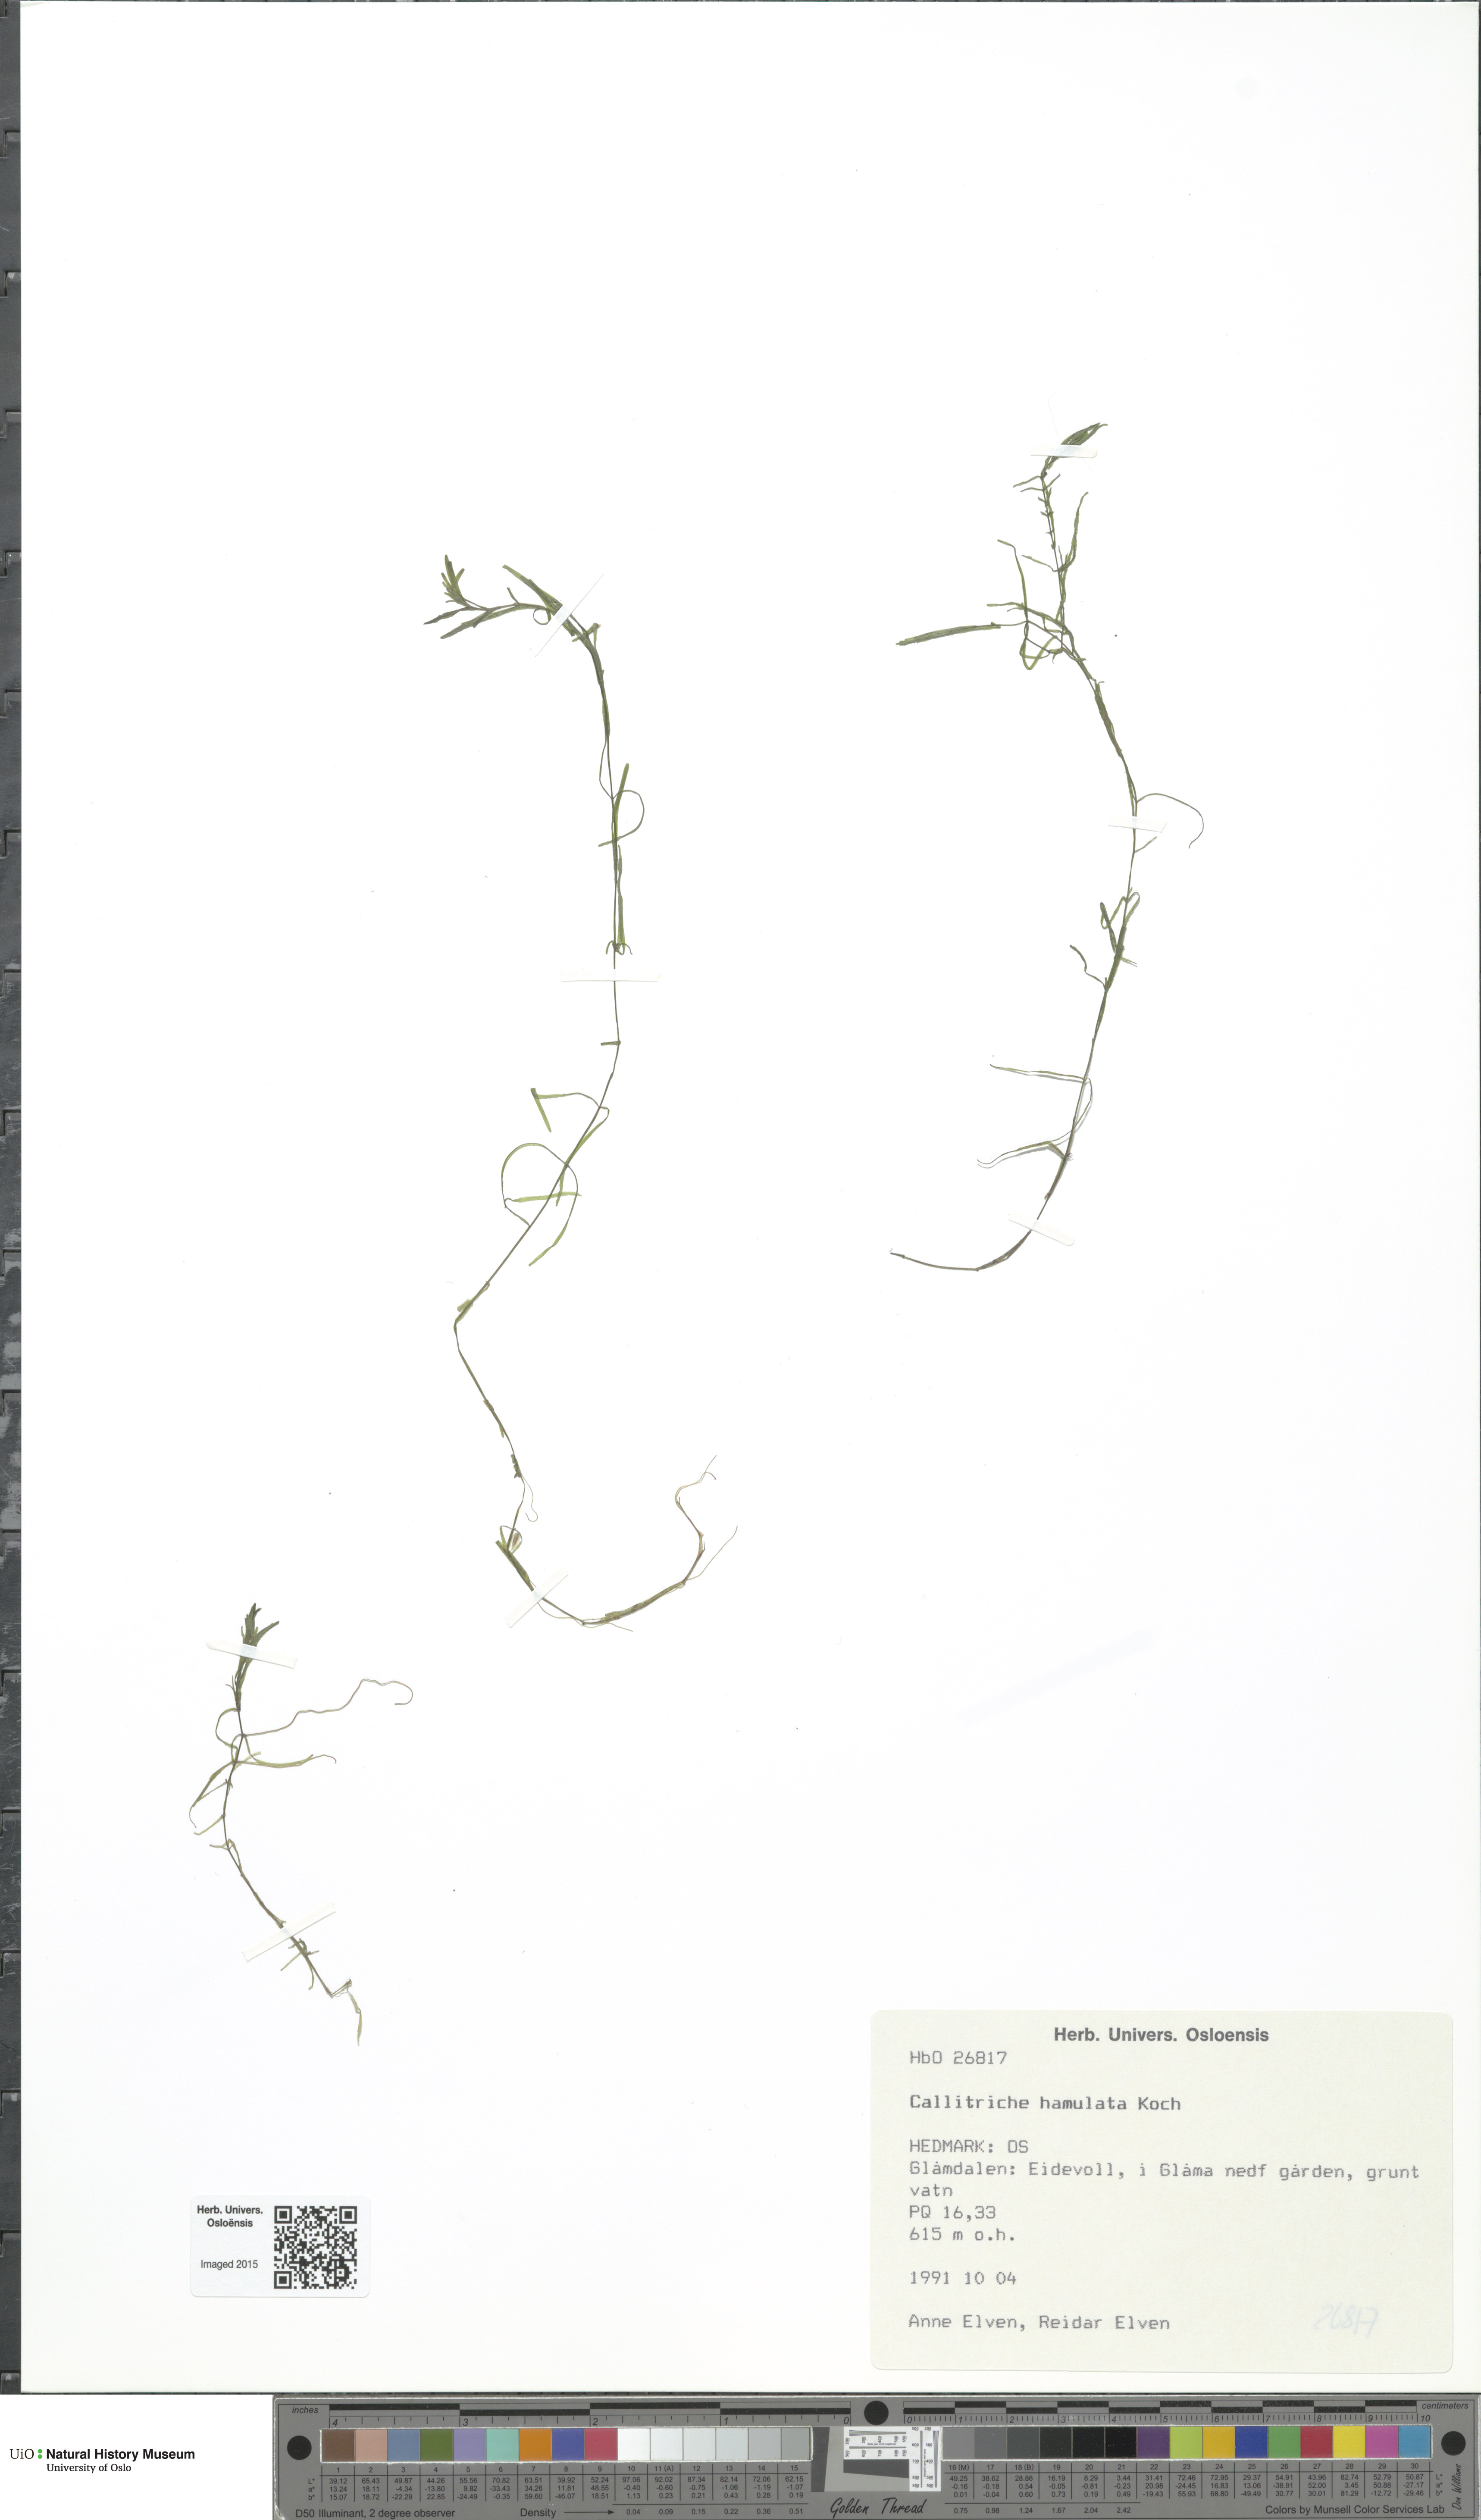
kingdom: Plantae
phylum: Tracheophyta
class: Magnoliopsida
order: Lamiales
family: Plantaginaceae
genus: Callitriche
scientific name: Callitriche hamulata
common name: Intermediate water-starwort
